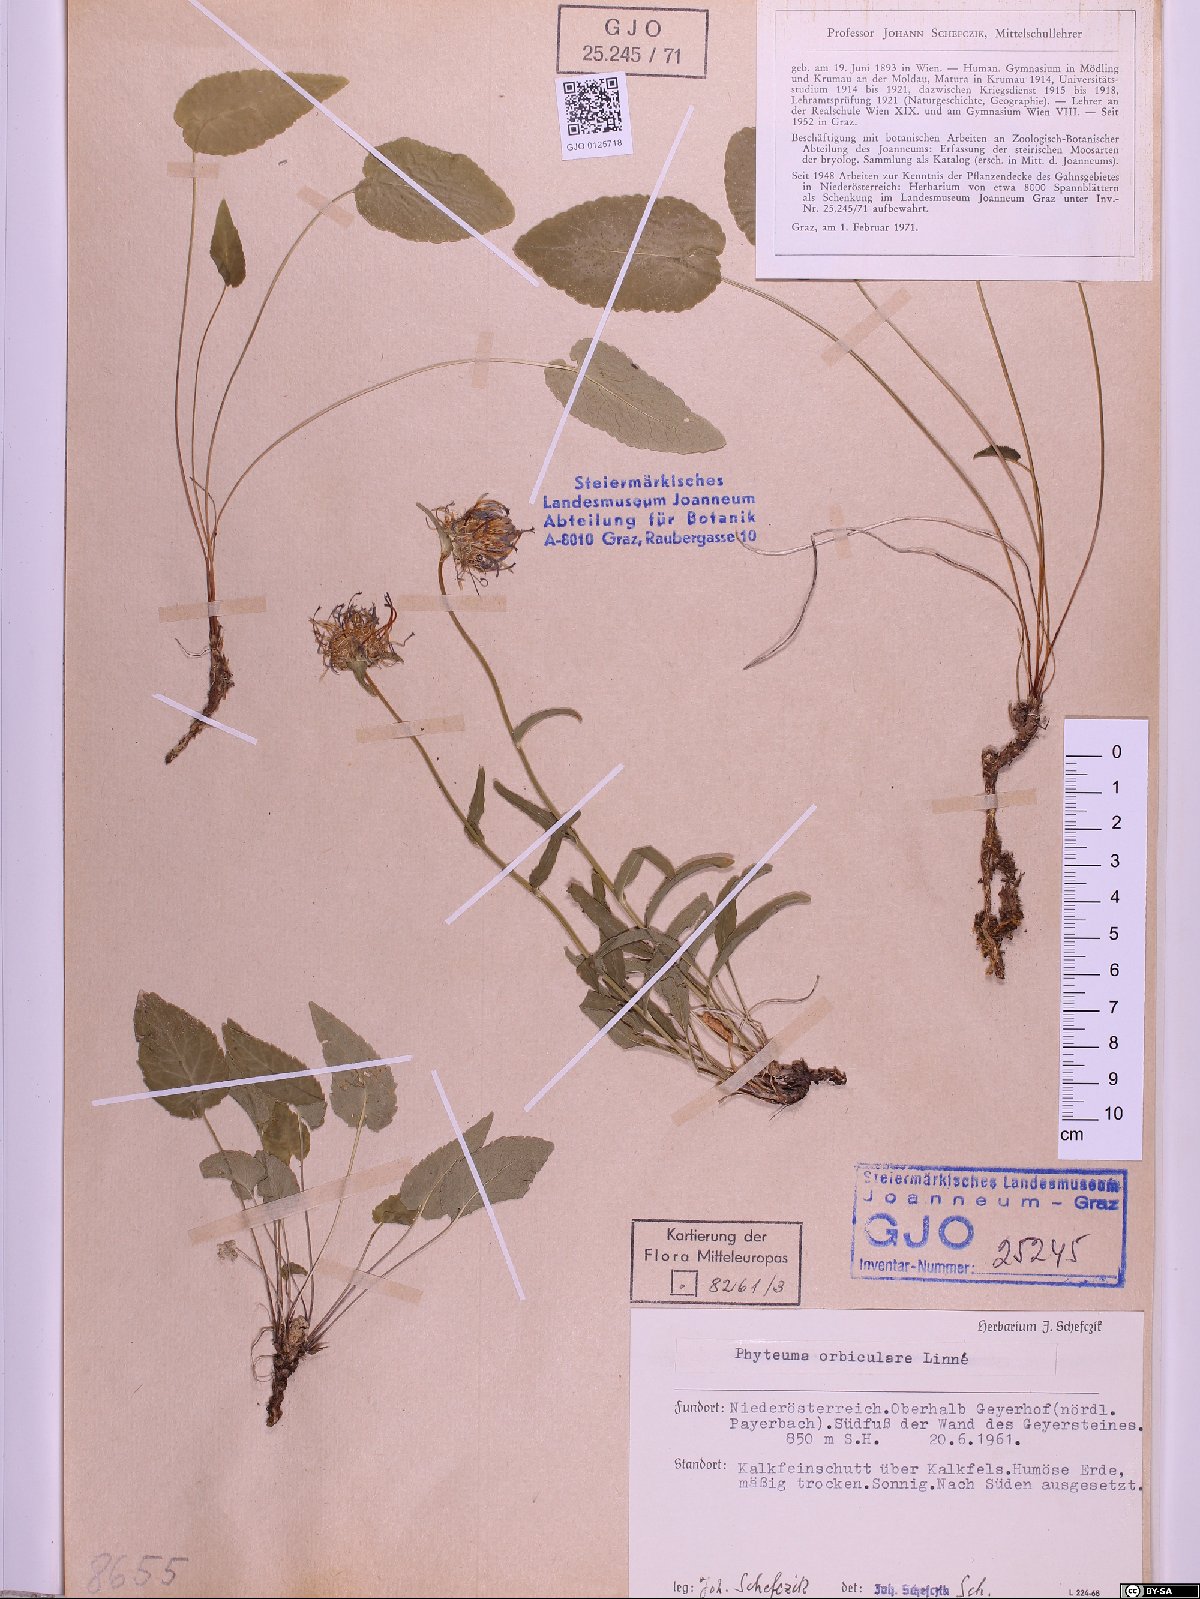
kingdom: Plantae
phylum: Tracheophyta
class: Magnoliopsida
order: Asterales
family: Campanulaceae
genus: Phyteuma
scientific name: Phyteuma orbiculare
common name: Round-headed rampion
